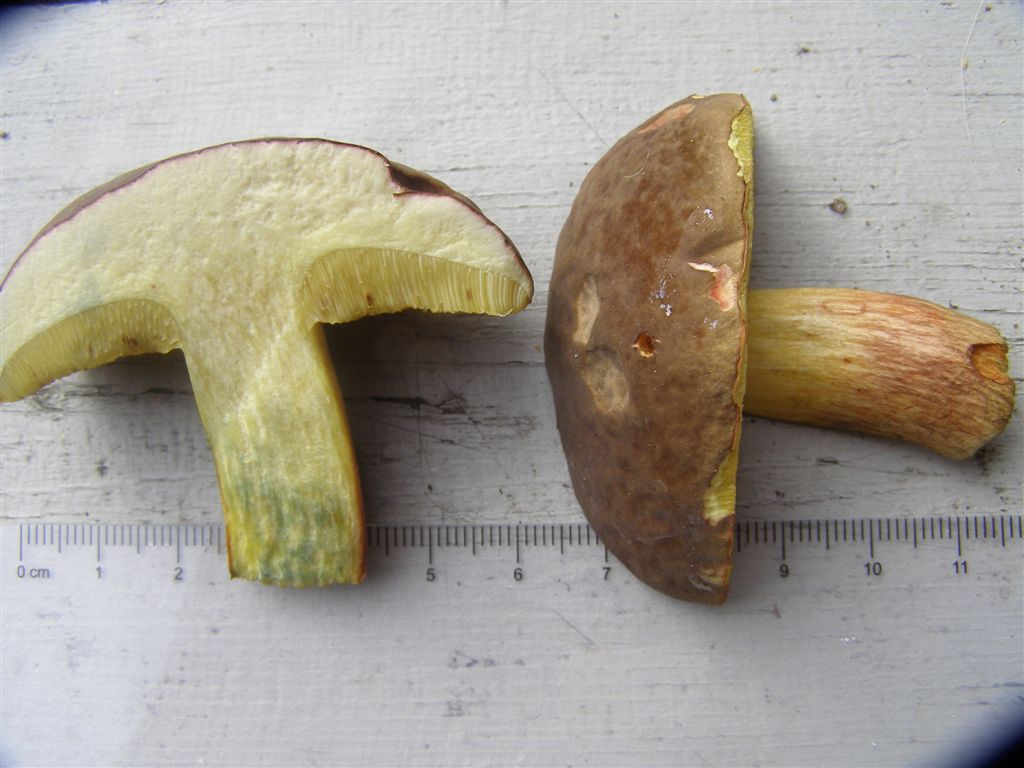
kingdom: Fungi
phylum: Basidiomycota
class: Agaricomycetes
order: Boletales
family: Boletaceae
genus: Xerocomellus
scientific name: Xerocomellus pruinatus
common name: dugget rørhat
